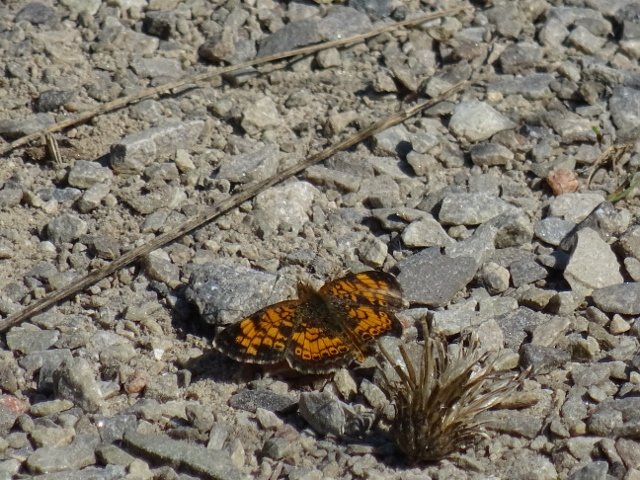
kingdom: Animalia
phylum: Arthropoda
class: Insecta
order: Lepidoptera
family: Nymphalidae
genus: Phyciodes
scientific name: Phyciodes tharos
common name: Pearl Crescent
